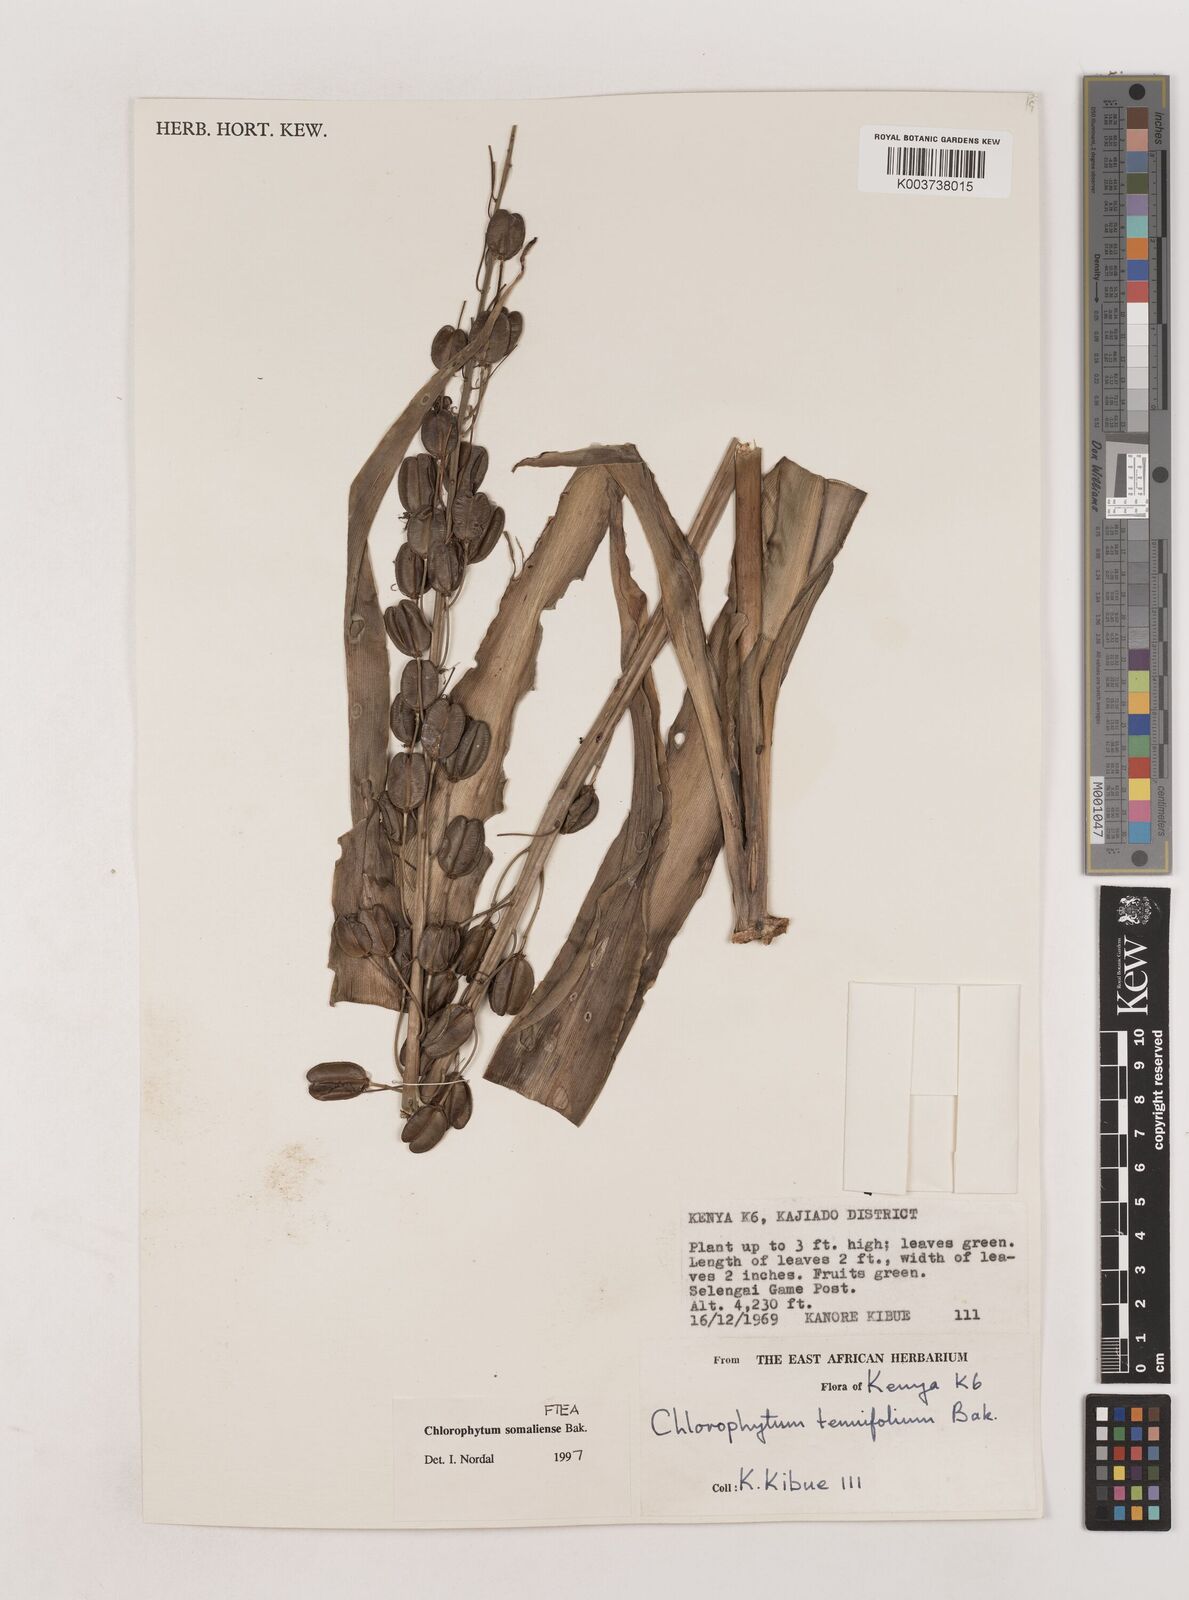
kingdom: Plantae
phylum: Tracheophyta
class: Liliopsida
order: Asparagales
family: Asparagaceae
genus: Chlorophytum
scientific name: Chlorophytum somaliense
